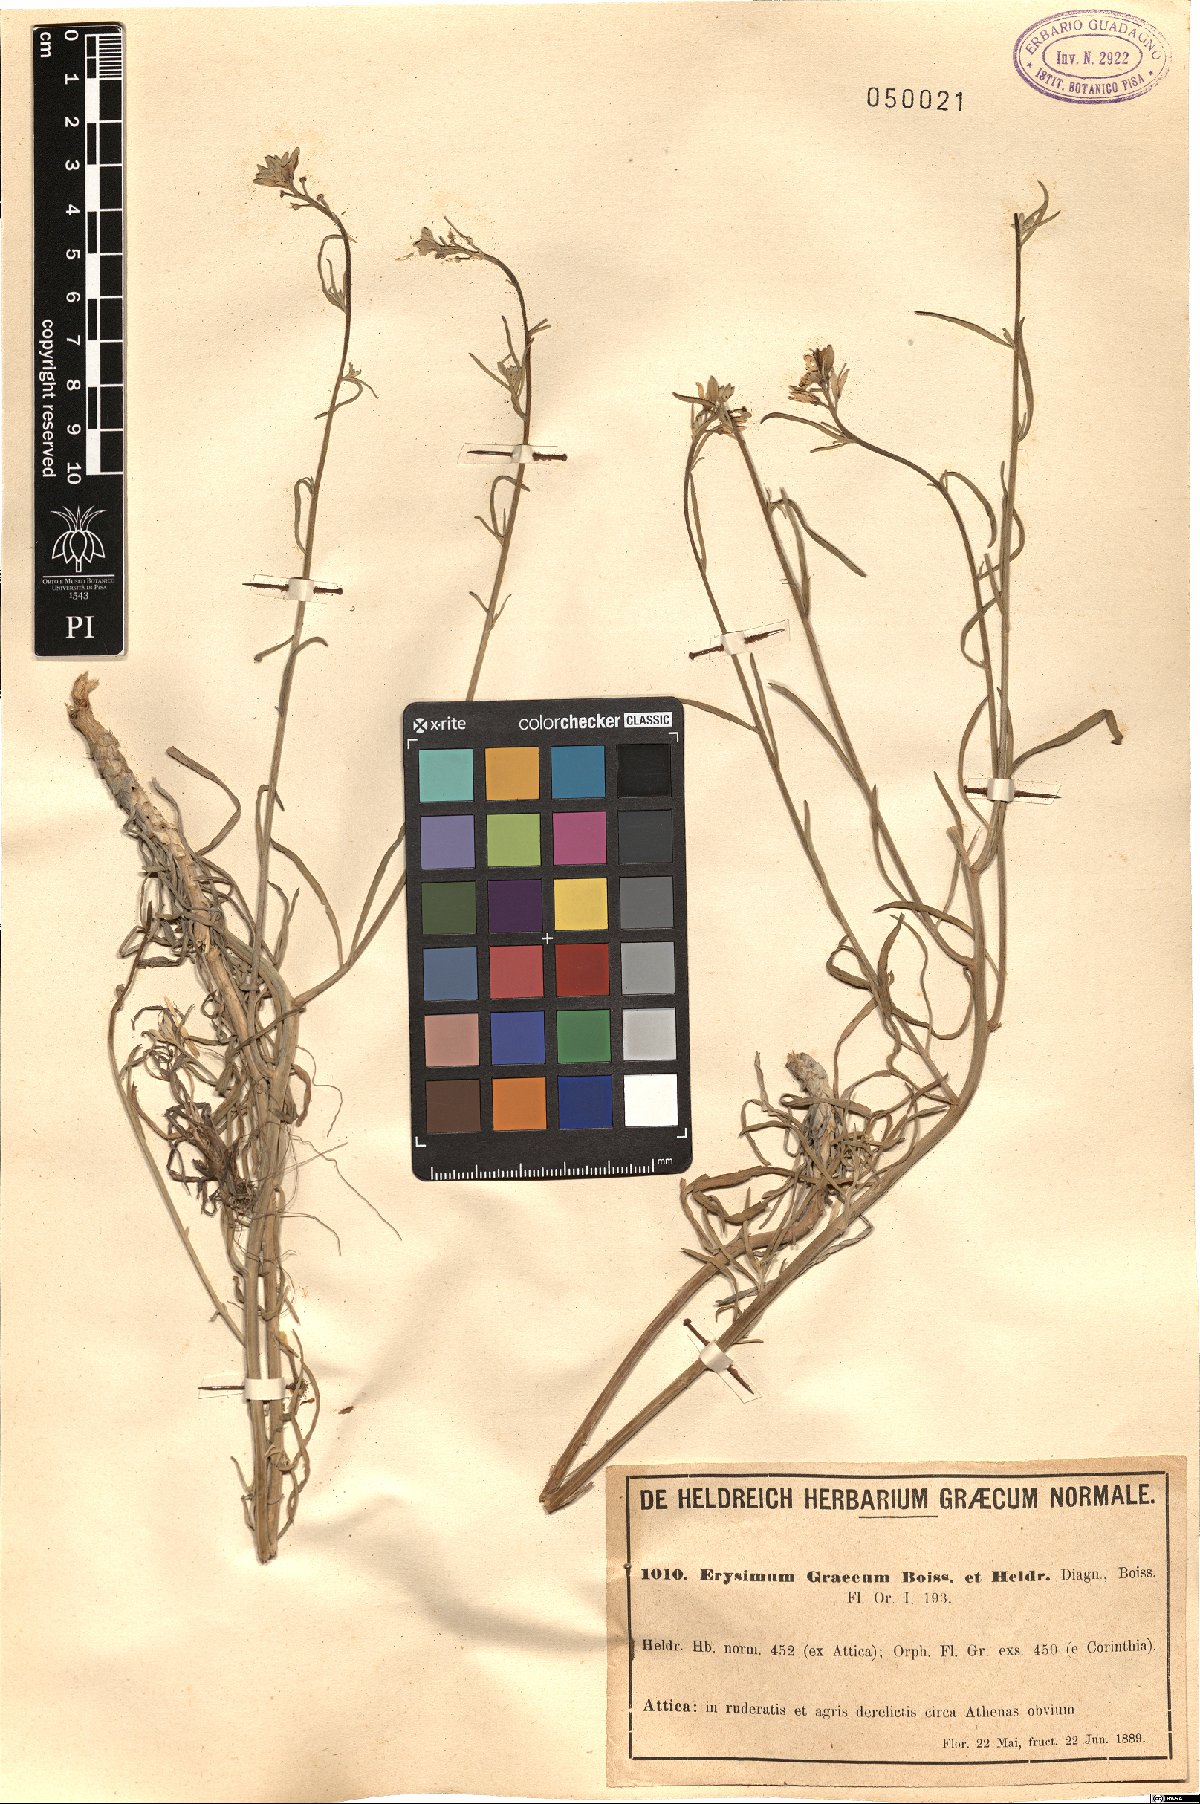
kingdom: Plantae
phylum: Tracheophyta
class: Magnoliopsida
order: Brassicales
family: Brassicaceae
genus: Erysimum
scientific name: Erysimum graecum
